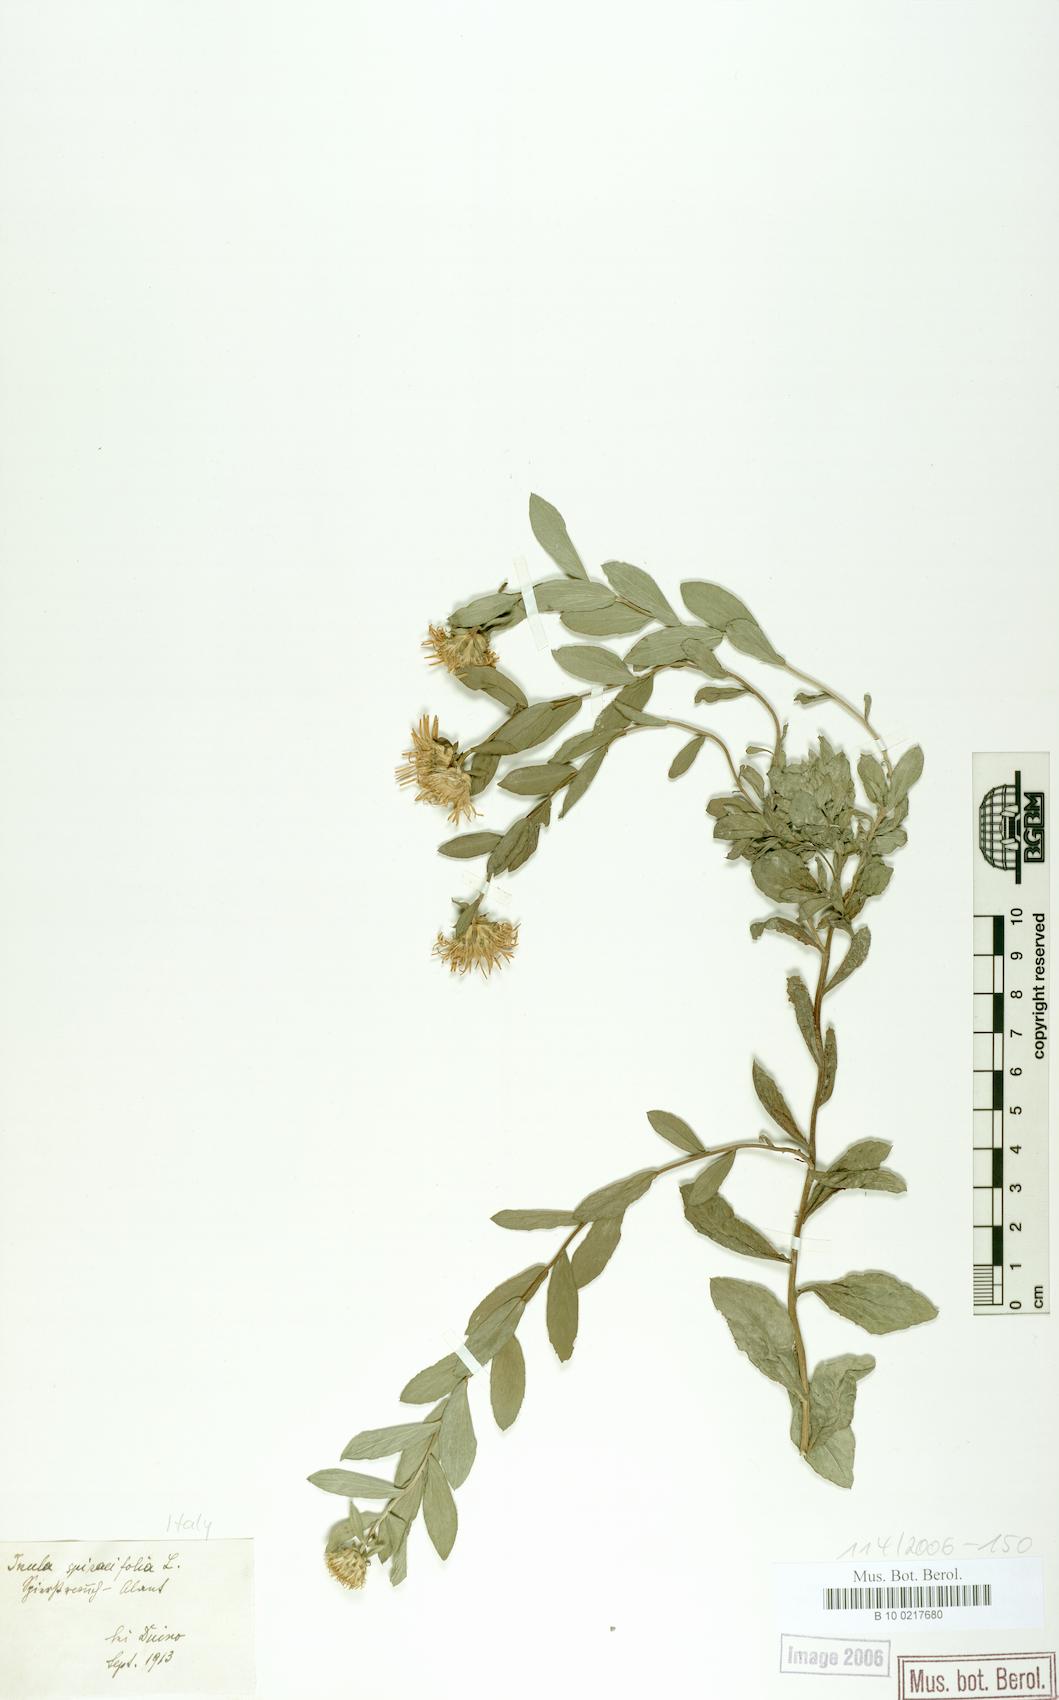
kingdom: Plantae
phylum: Tracheophyta
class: Magnoliopsida
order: Asterales
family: Asteraceae
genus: Pentanema
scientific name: Pentanema spiraeifolium
